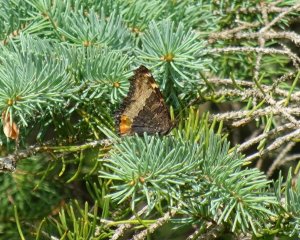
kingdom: Animalia
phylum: Arthropoda
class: Insecta
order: Lepidoptera
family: Nymphalidae
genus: Aglais
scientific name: Aglais milberti
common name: Milbert's Tortoiseshell
